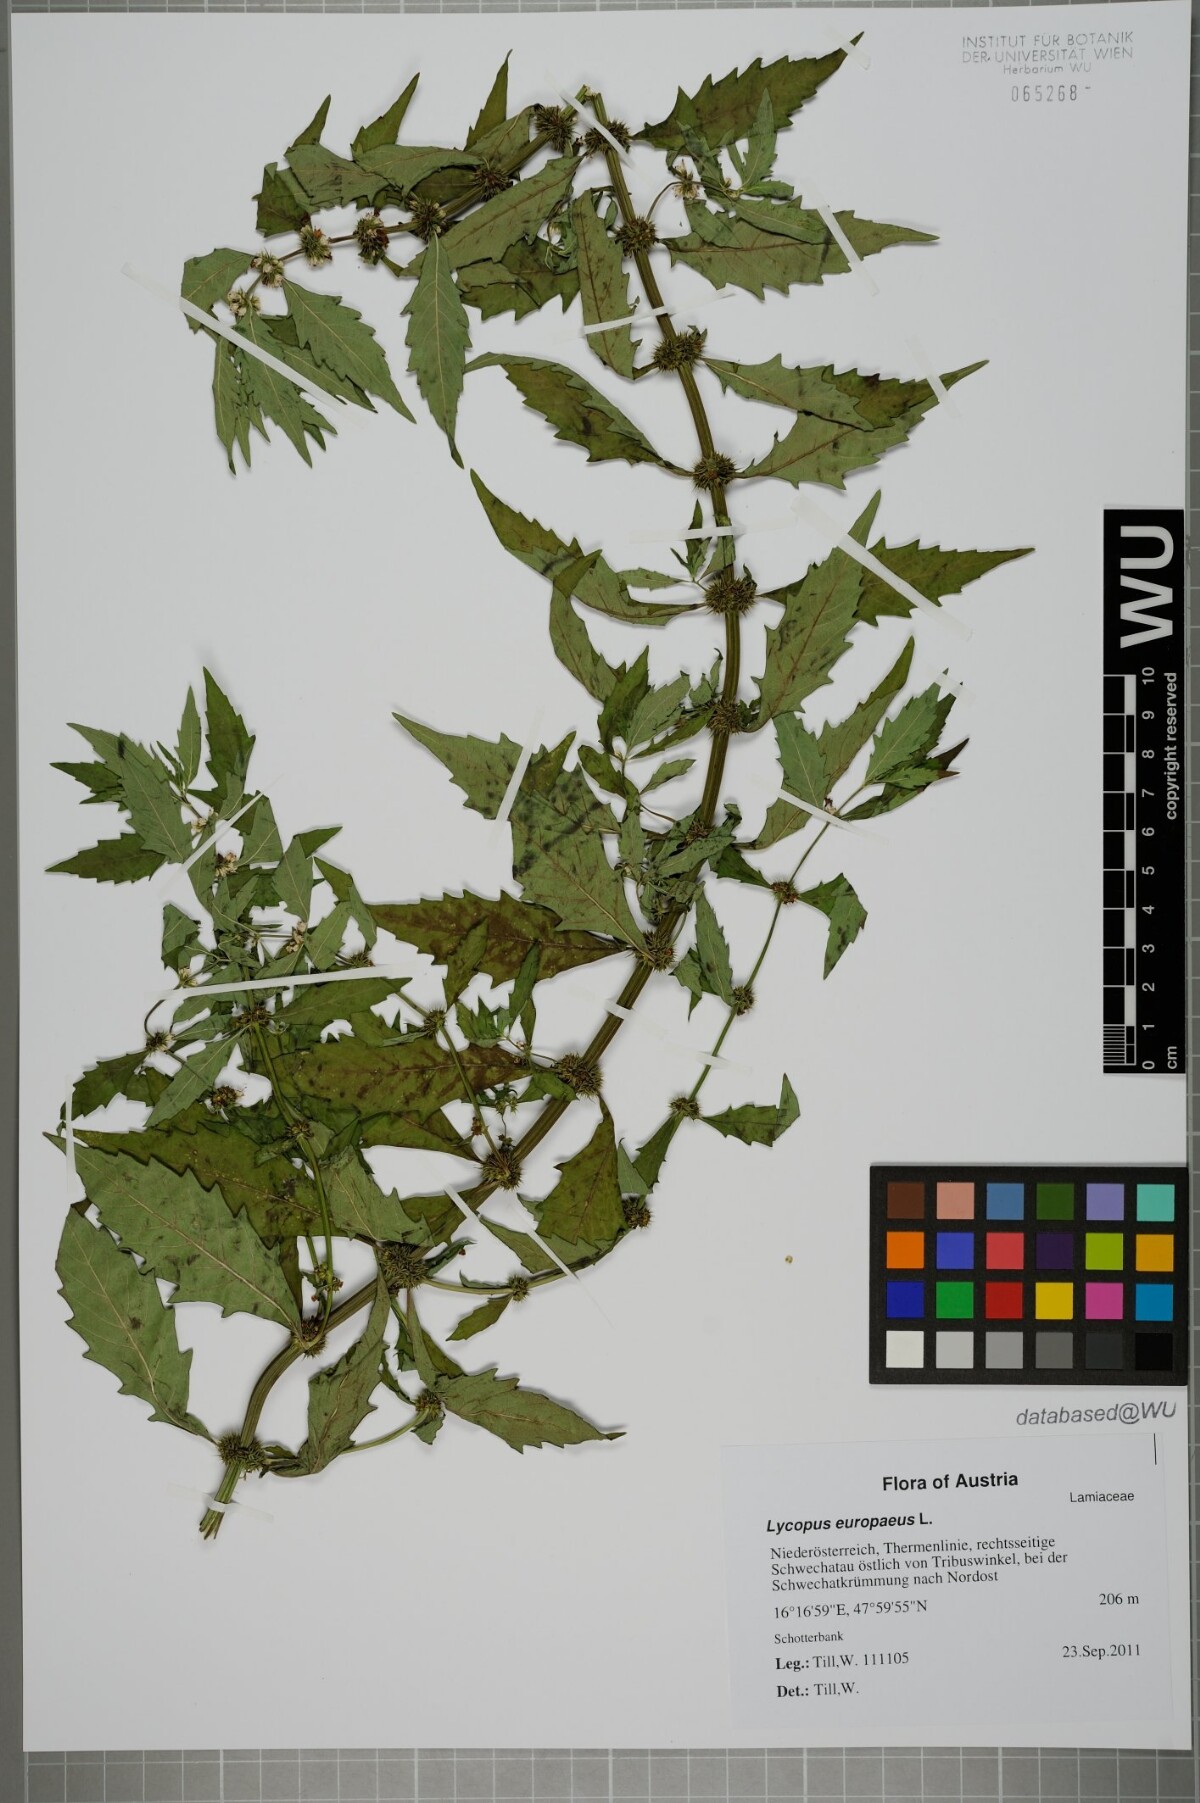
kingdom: Plantae
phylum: Tracheophyta
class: Magnoliopsida
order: Lamiales
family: Lamiaceae
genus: Lycopus
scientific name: Lycopus europaeus
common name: European bugleweed
